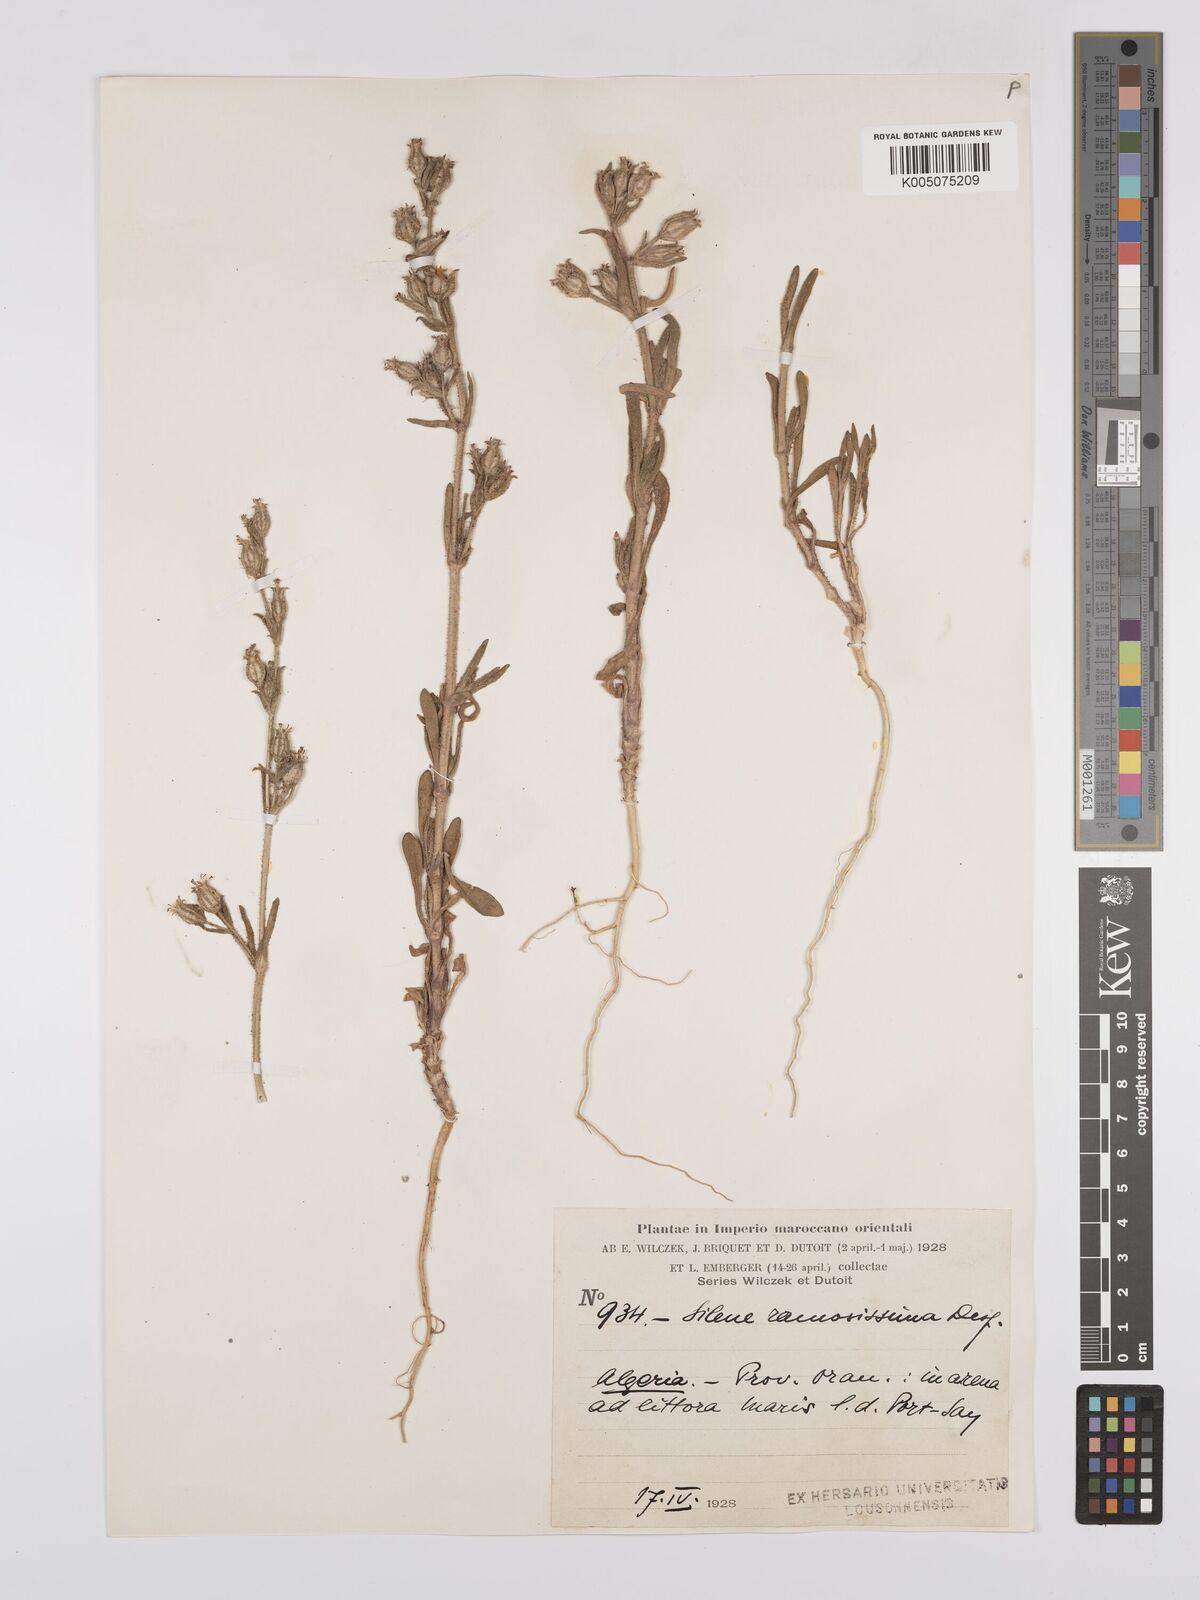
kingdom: Plantae
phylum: Tracheophyta
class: Magnoliopsida
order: Caryophyllales
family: Caryophyllaceae
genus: Silene
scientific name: Silene ramosissima
